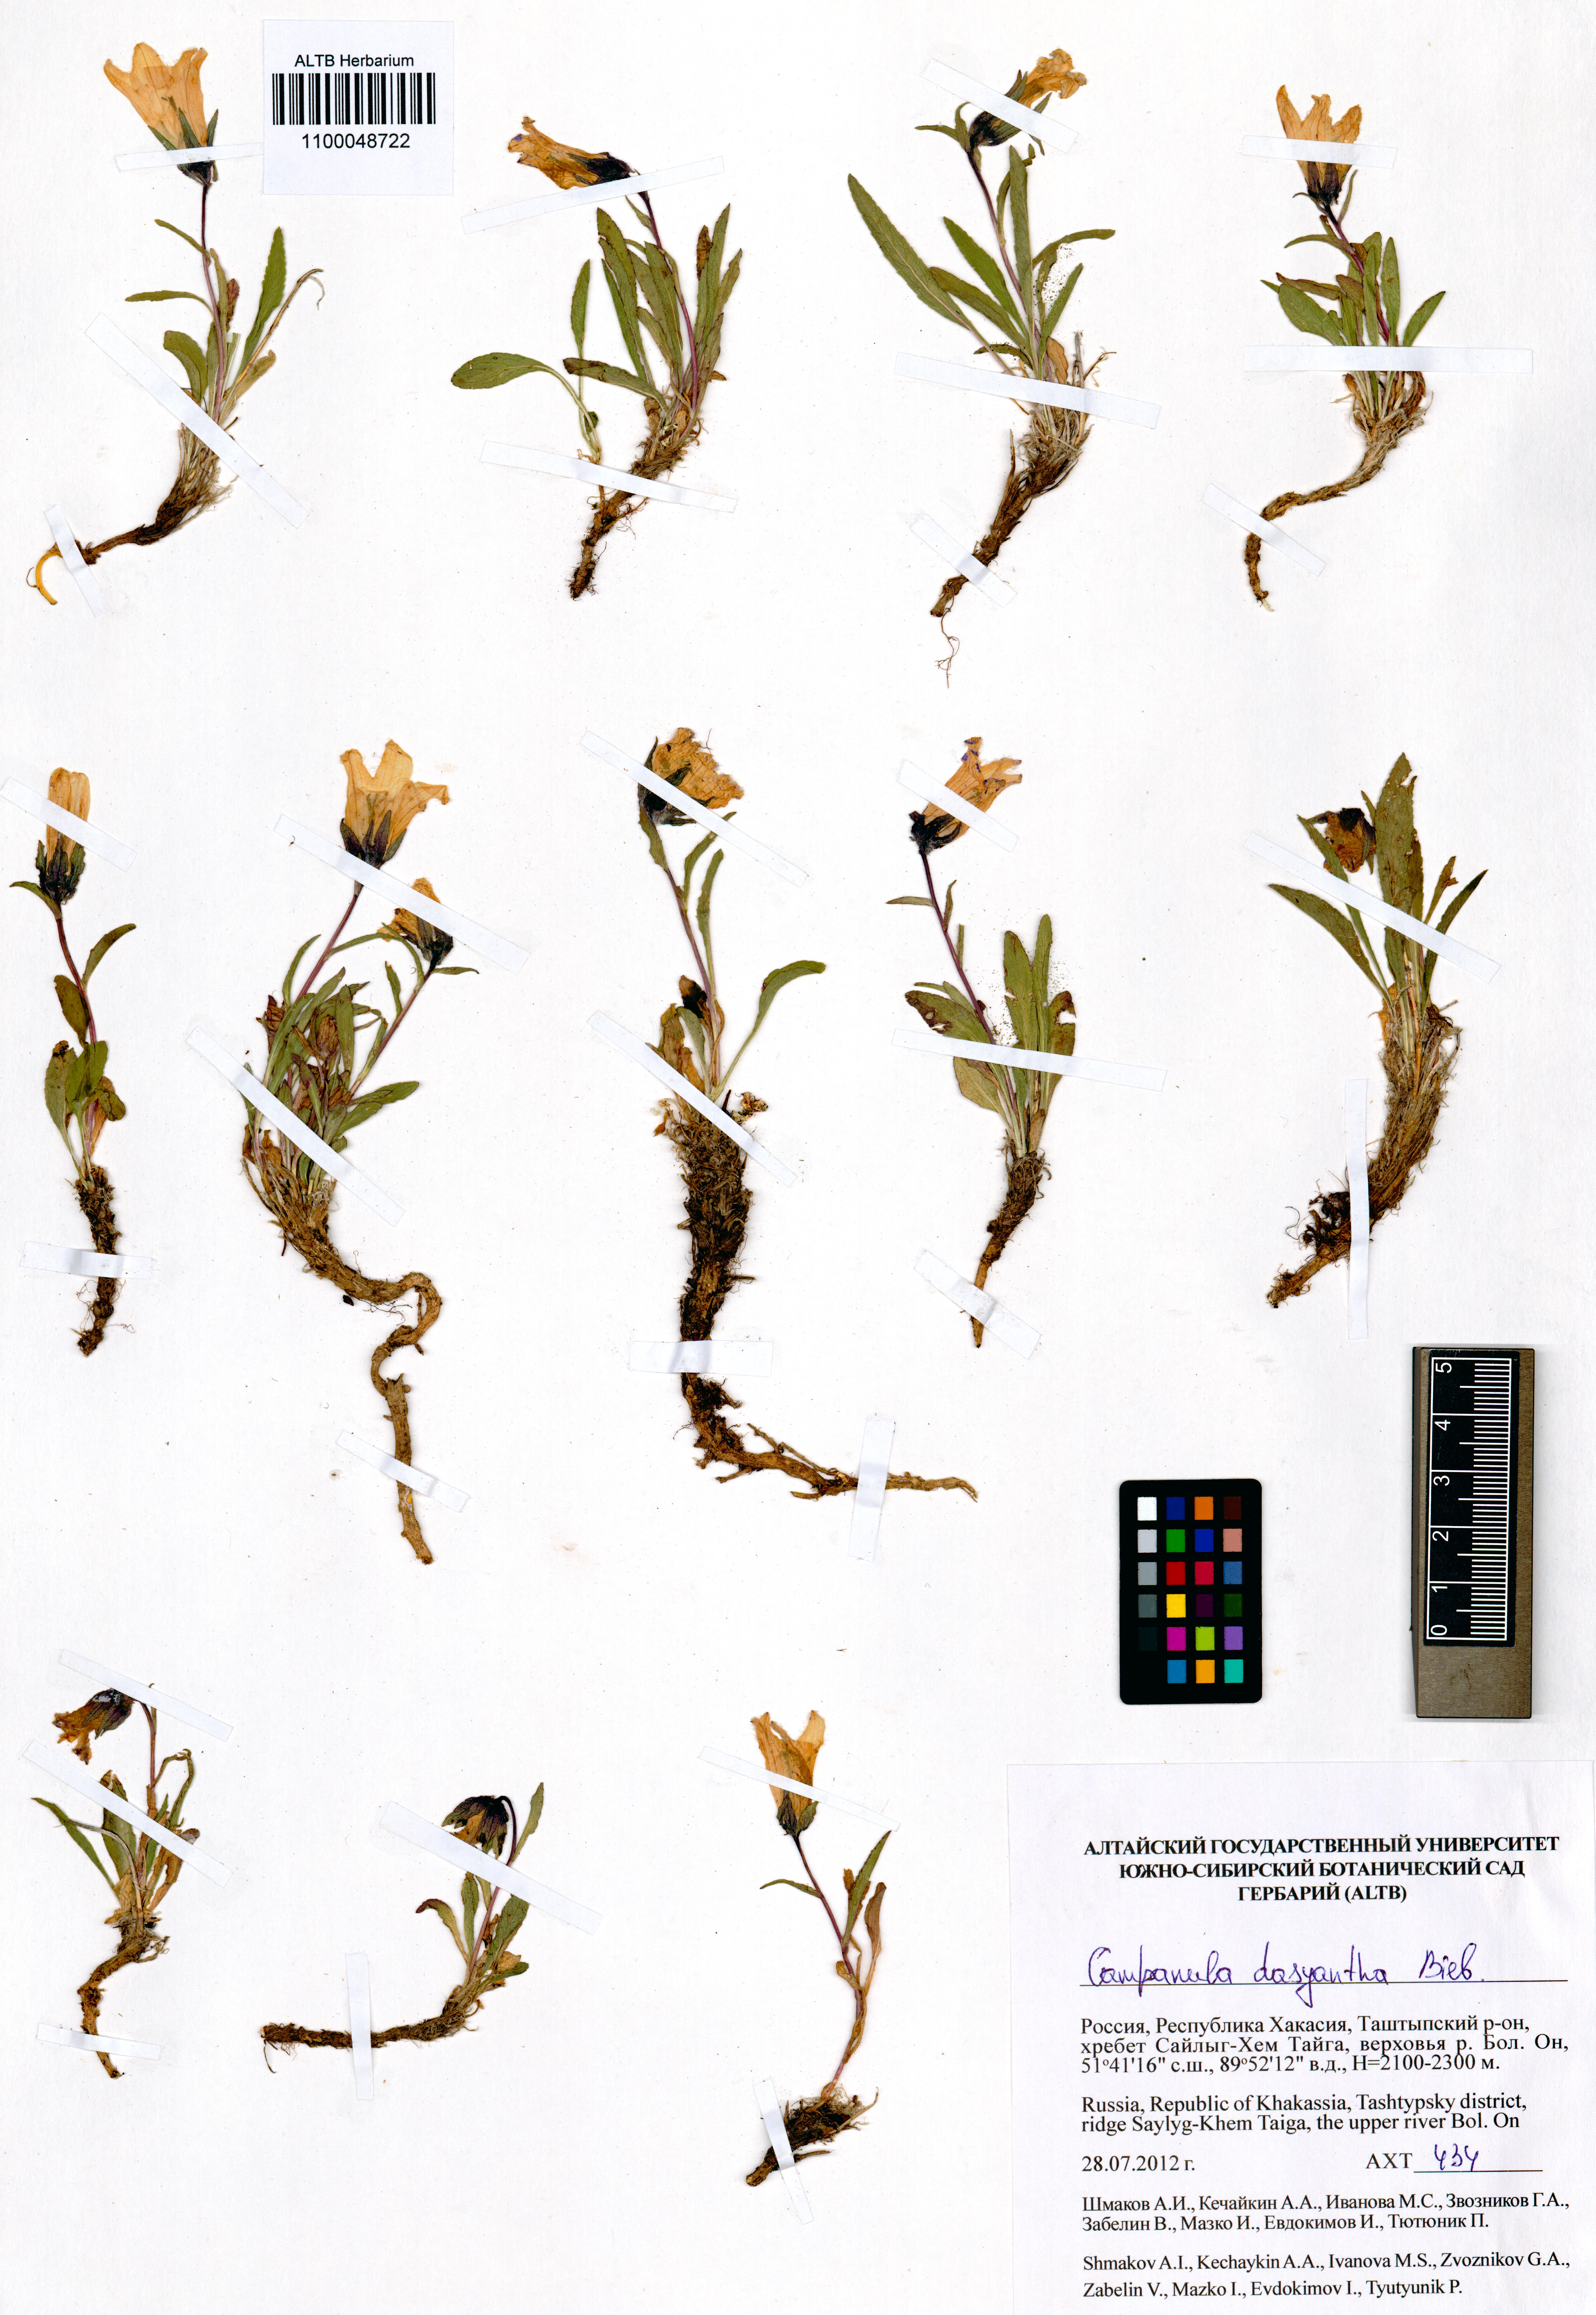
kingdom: Plantae
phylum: Tracheophyta
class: Magnoliopsida
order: Asterales
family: Campanulaceae
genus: Campanula
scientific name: Campanula dasyantha
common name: Hairyflower bellflower
